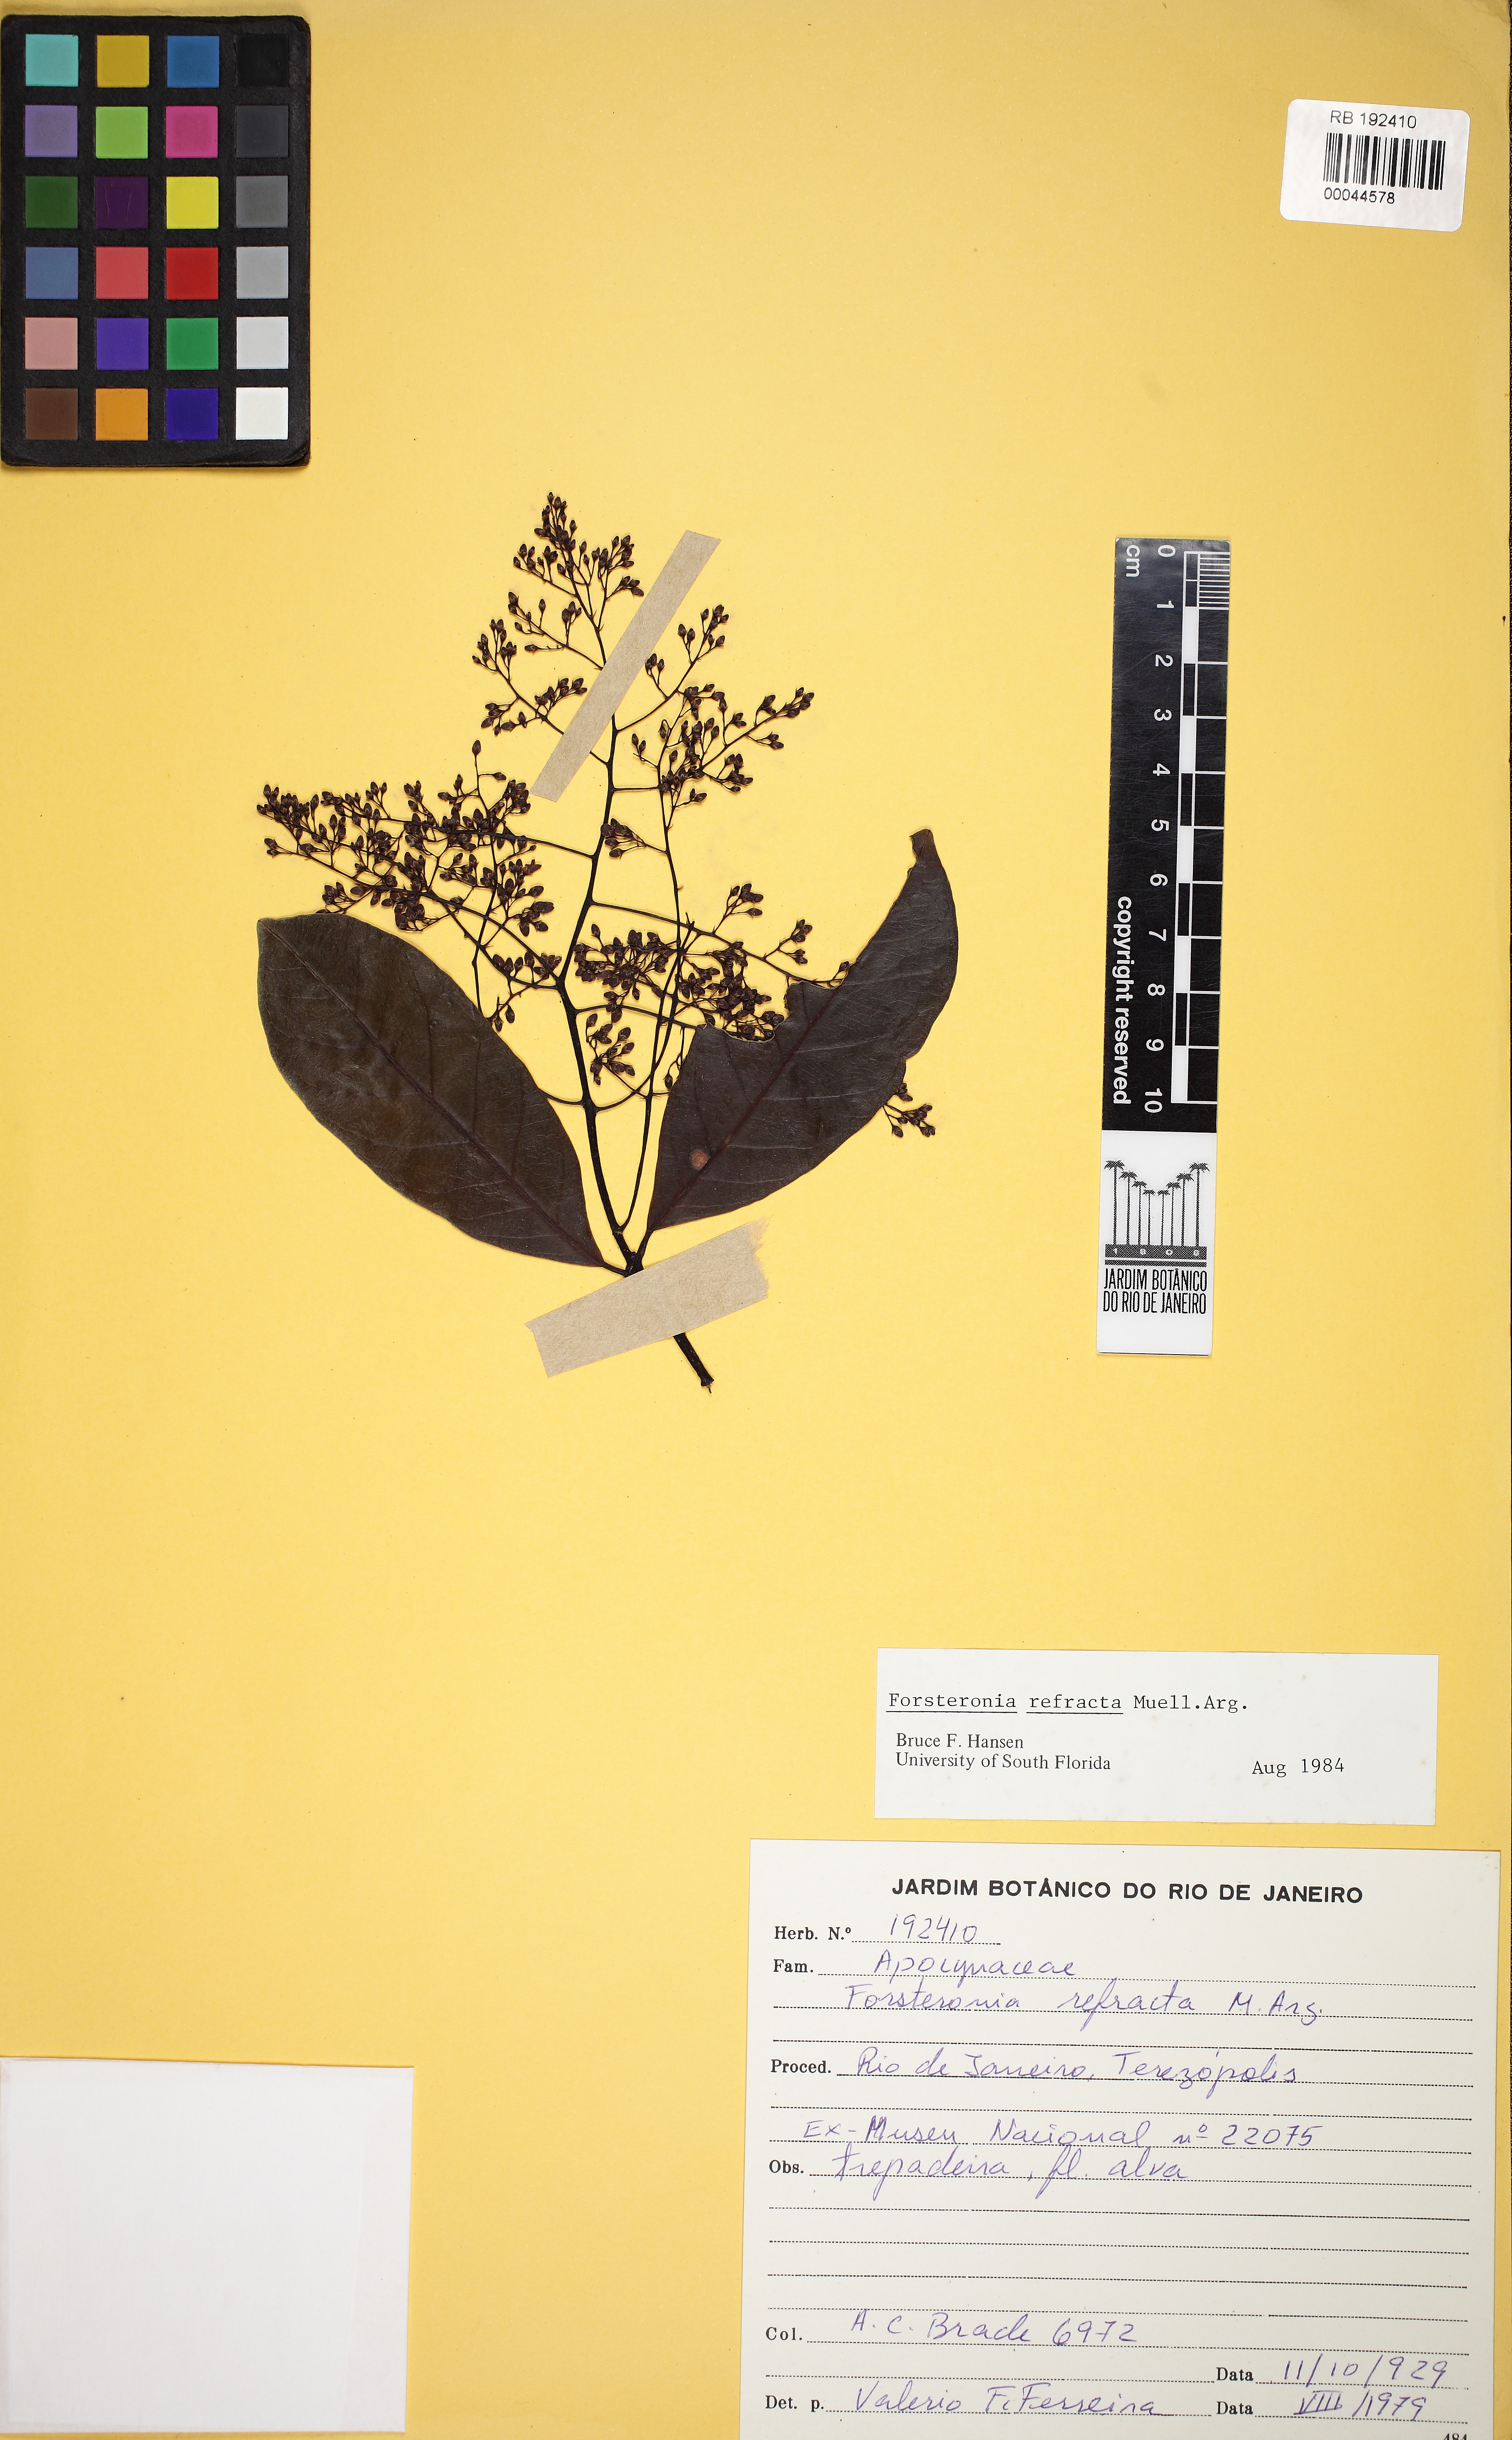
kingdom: Plantae
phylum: Tracheophyta
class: Magnoliopsida
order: Gentianales
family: Apocynaceae
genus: Forsteronia
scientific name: Forsteronia refracta
